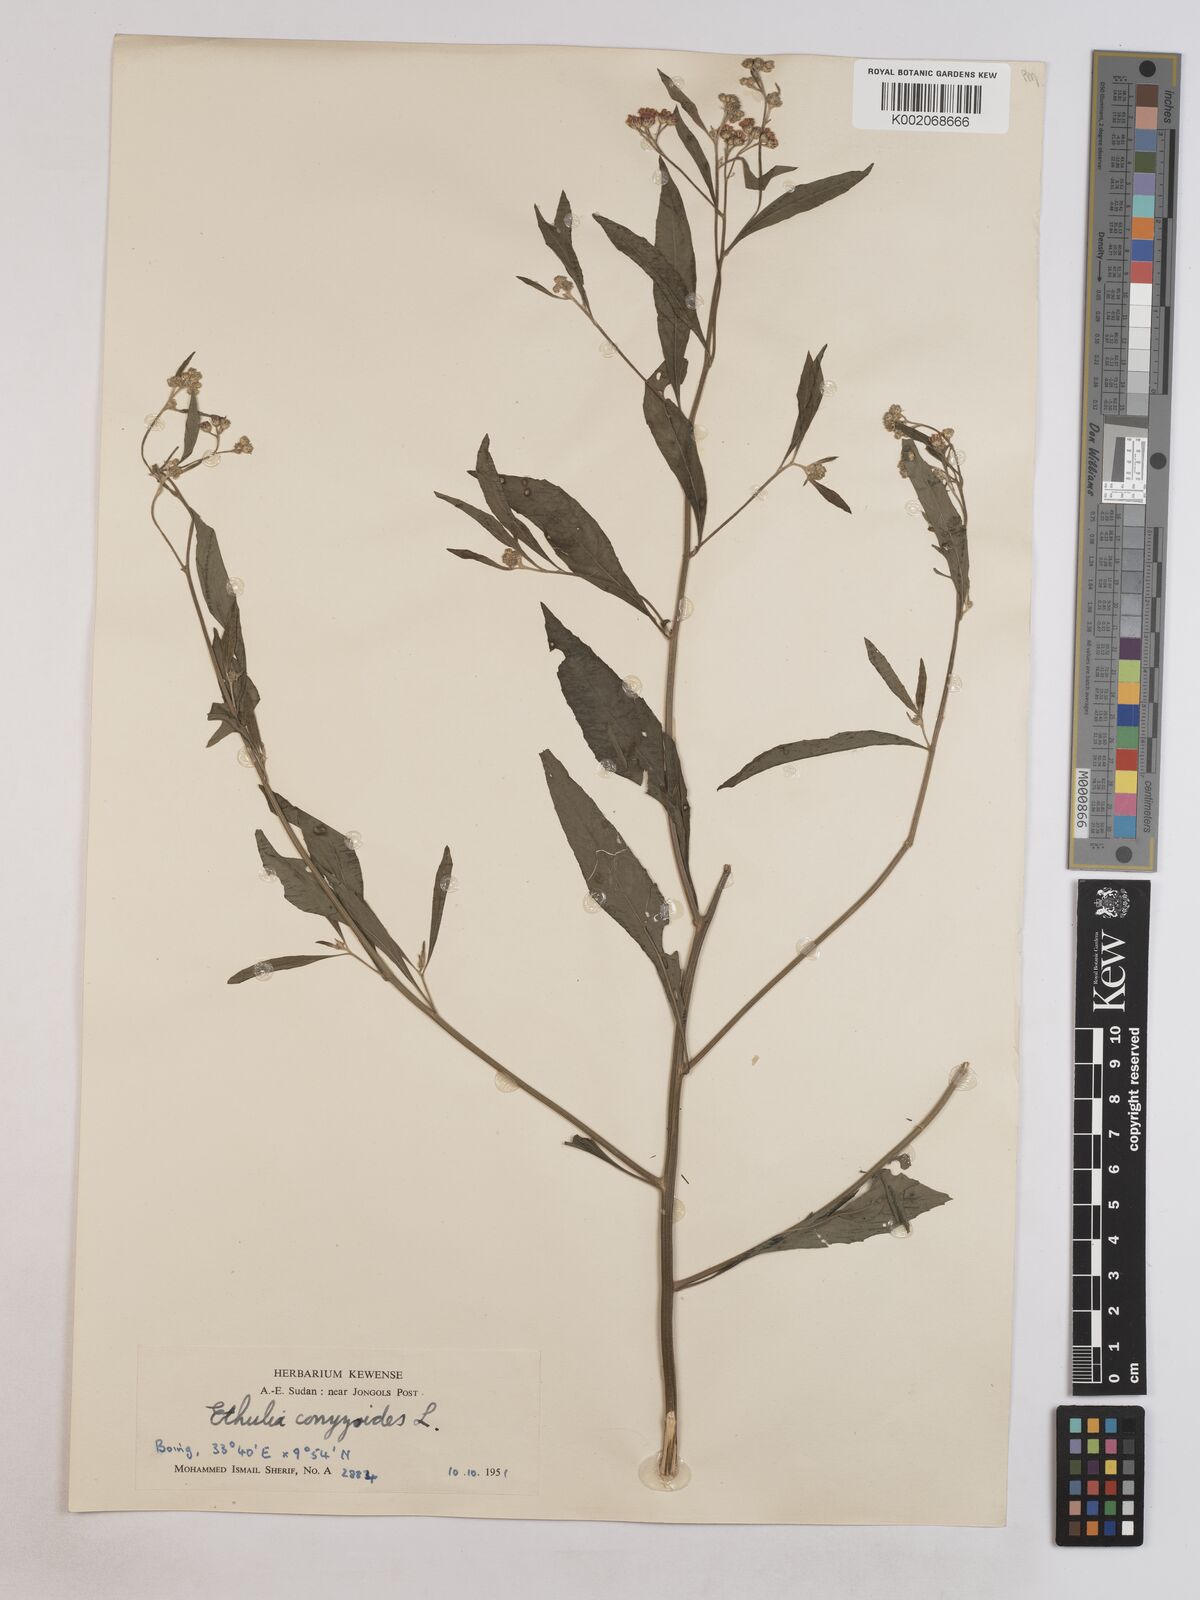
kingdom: Plantae
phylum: Tracheophyta
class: Magnoliopsida
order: Asterales
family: Asteraceae
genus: Ethulia
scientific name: Ethulia gracilis
